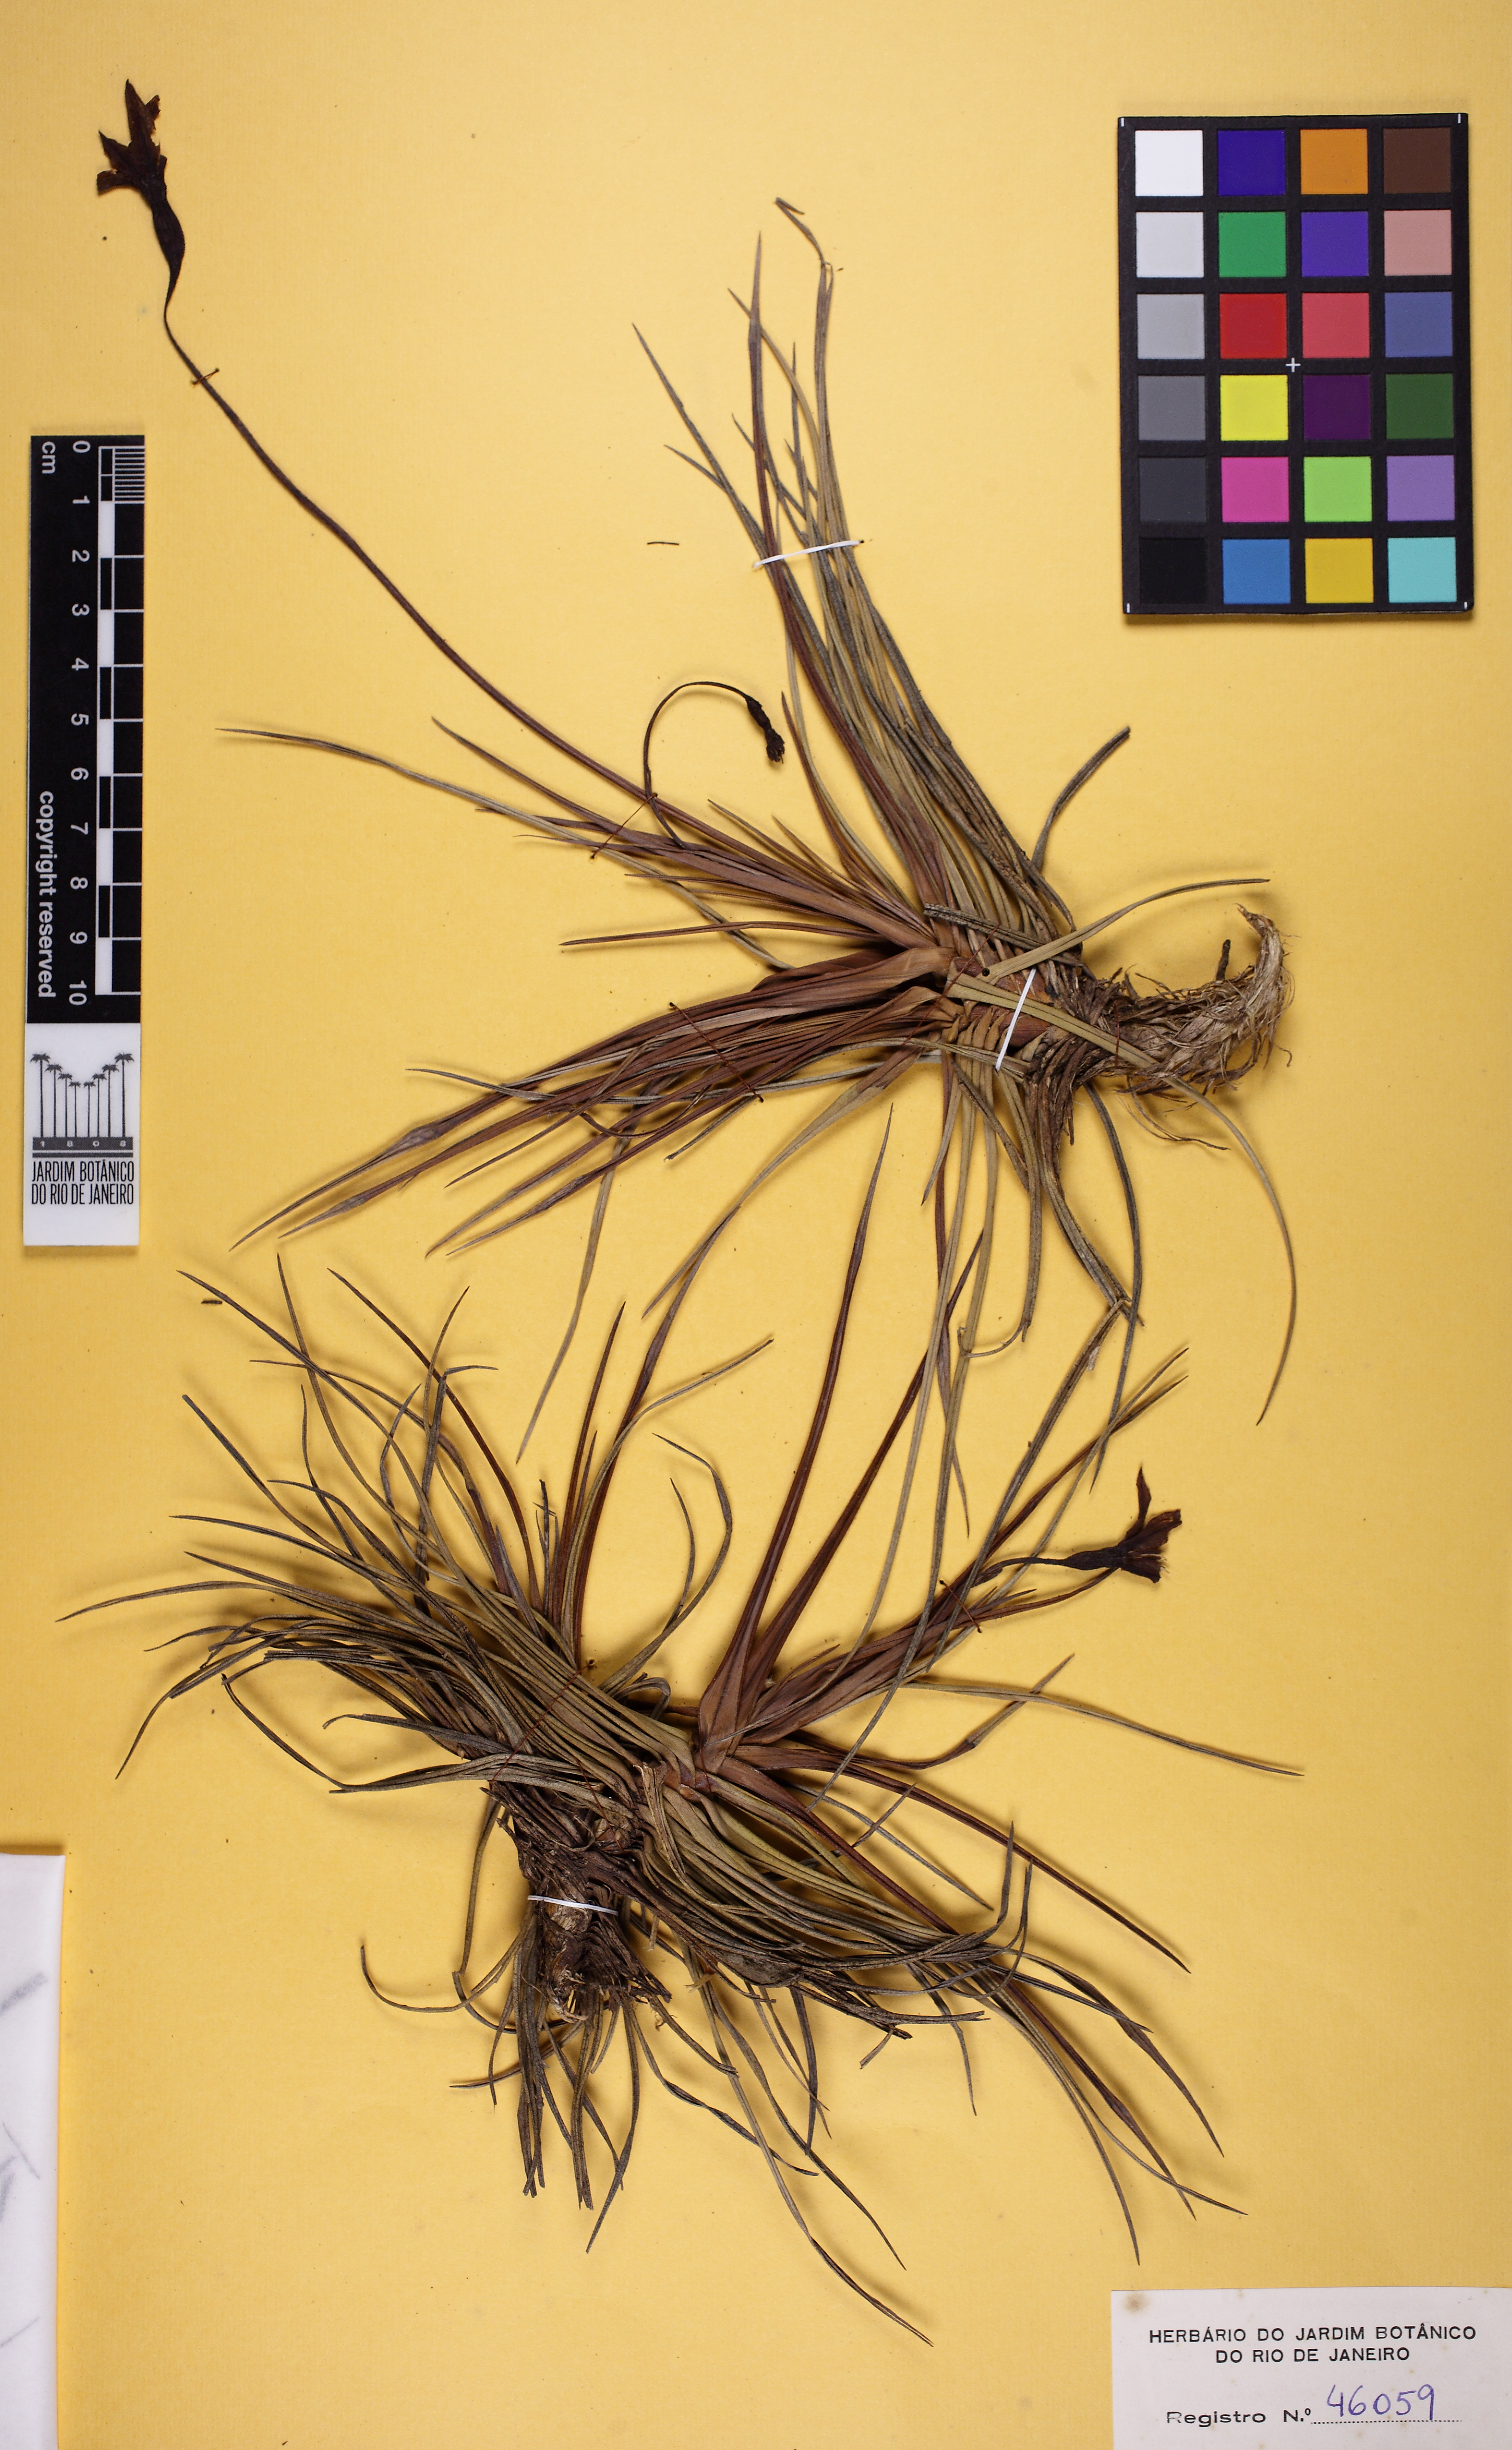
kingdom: Plantae
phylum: Tracheophyta
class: Liliopsida
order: Pandanales
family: Velloziaceae
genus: Barbacenia
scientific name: Barbacenia irwiniana
